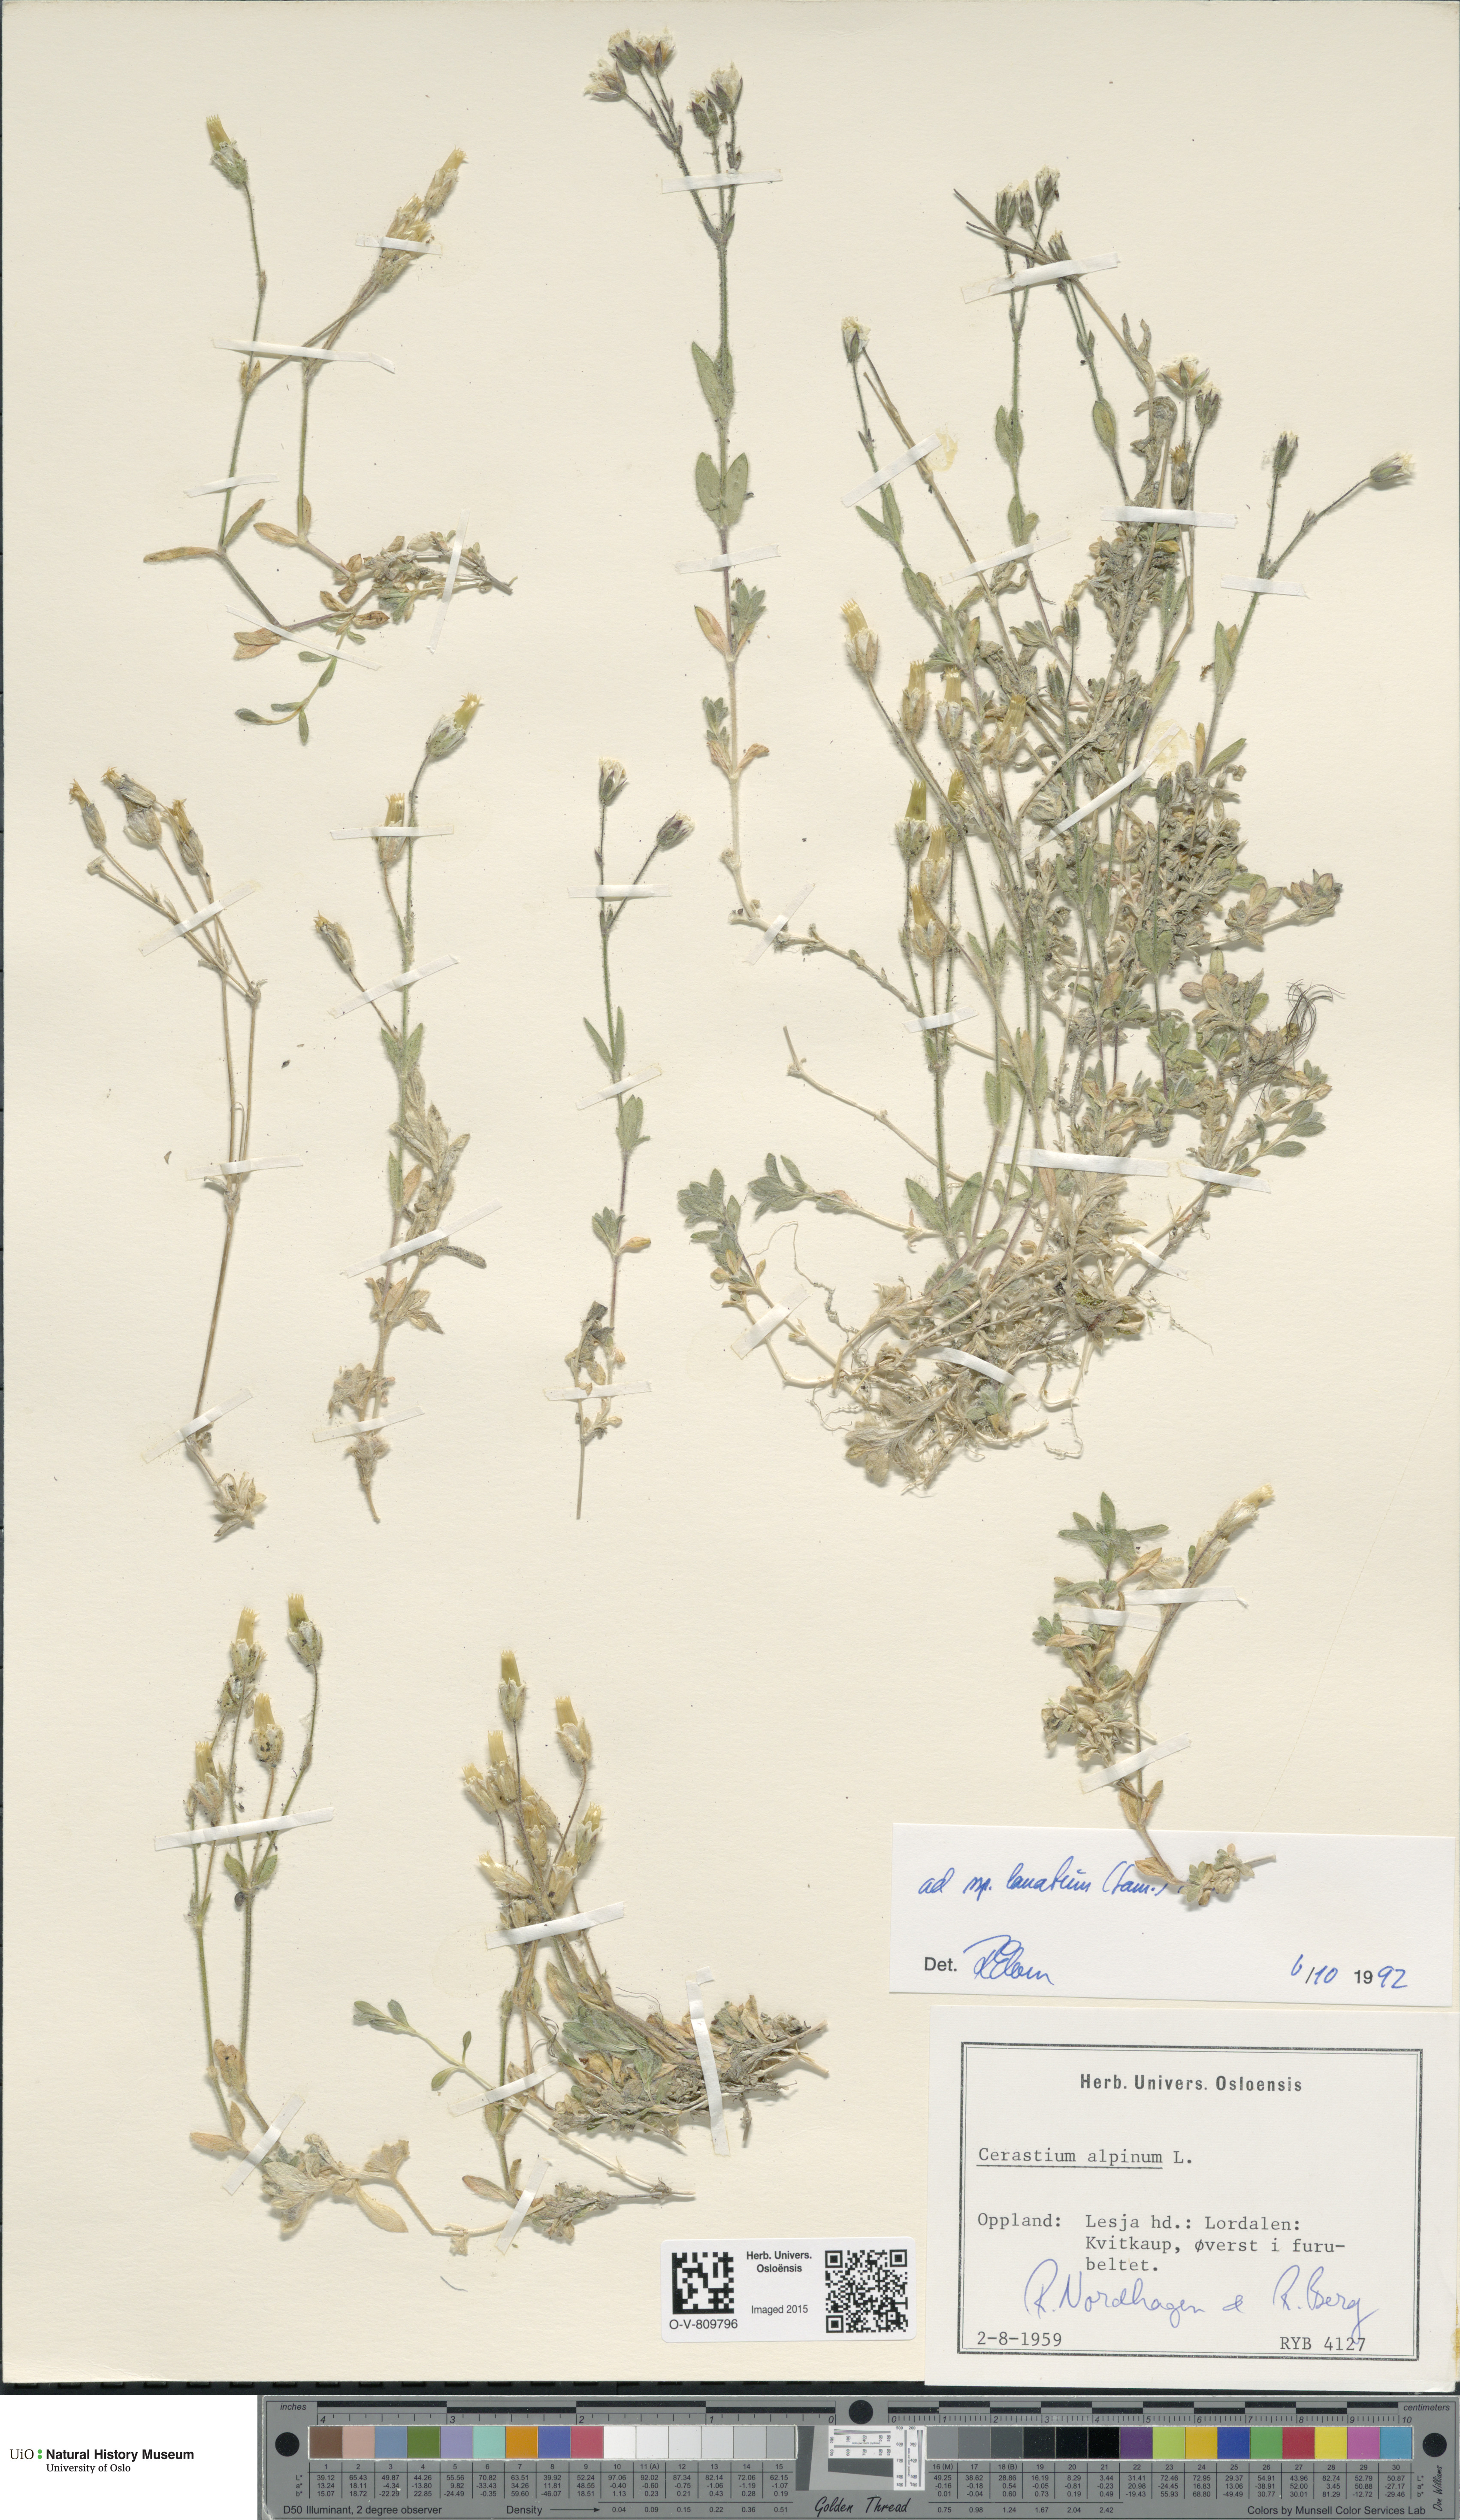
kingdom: Plantae
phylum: Tracheophyta
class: Magnoliopsida
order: Caryophyllales
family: Caryophyllaceae
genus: Cerastium
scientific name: Cerastium alpinum
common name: Alpine mouse-ear
